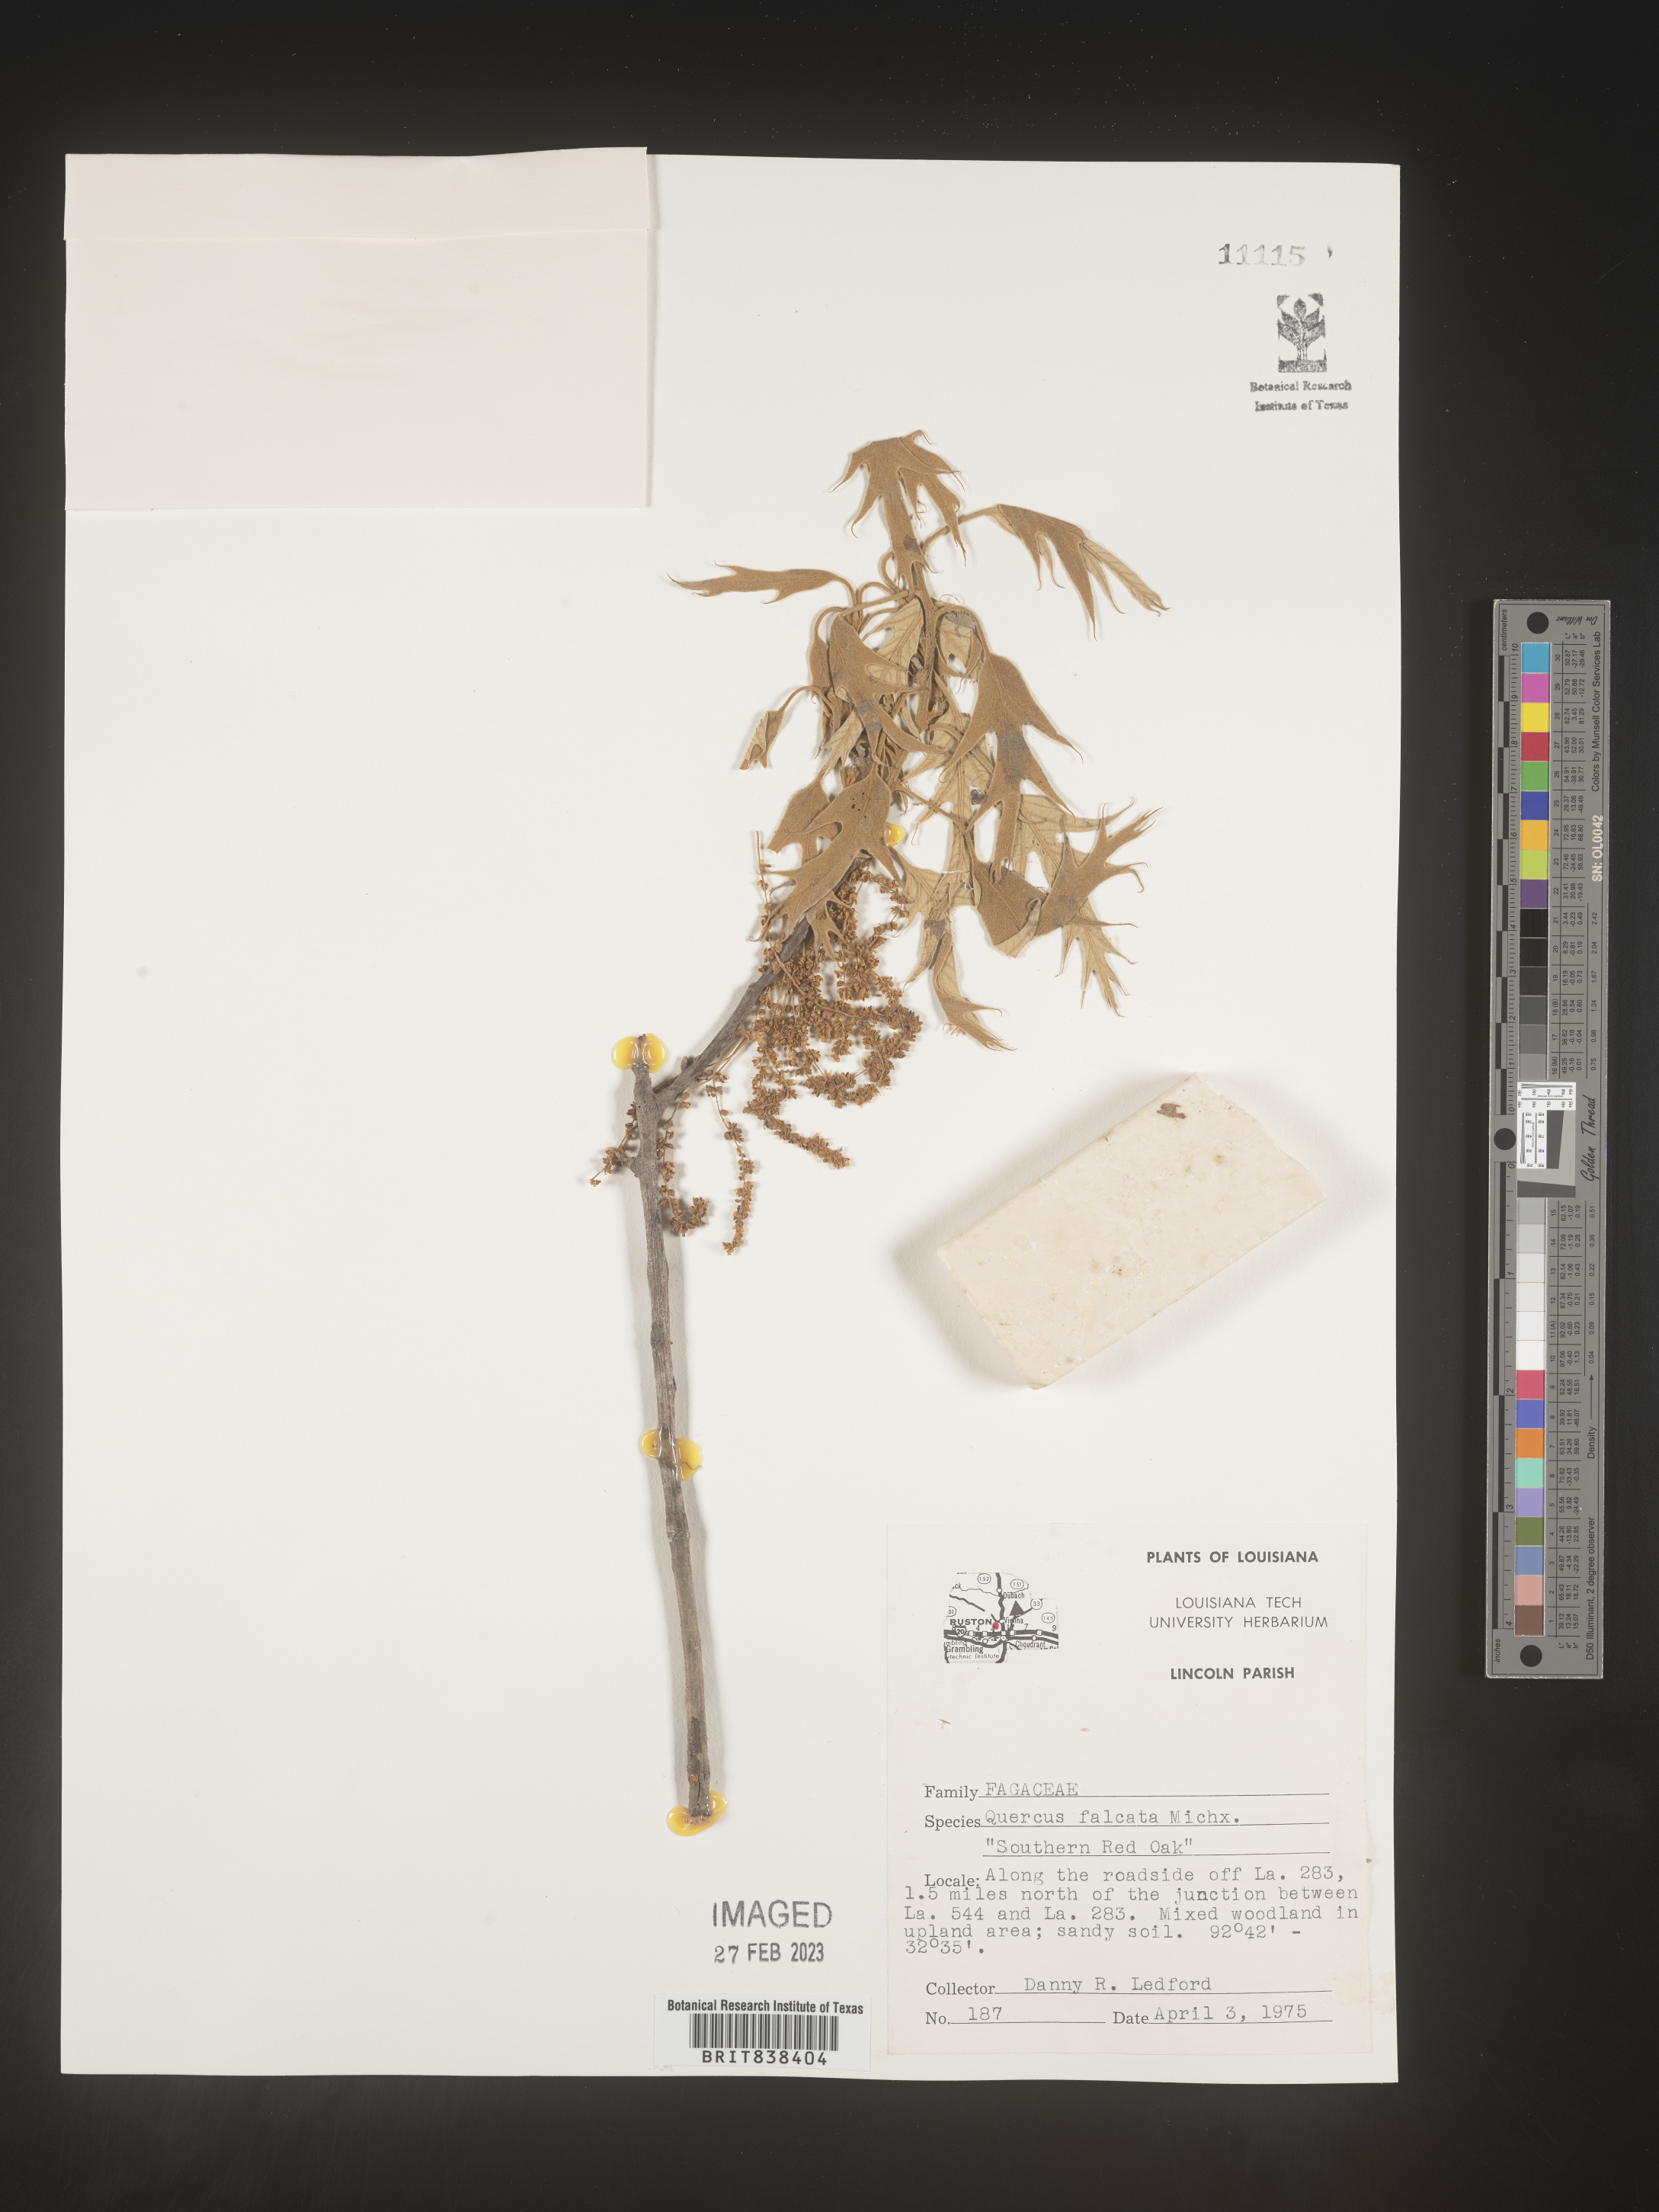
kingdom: Plantae
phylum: Tracheophyta
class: Magnoliopsida
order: Fagales
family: Fagaceae
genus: Quercus
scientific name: Quercus falcata
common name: Southern red oak
